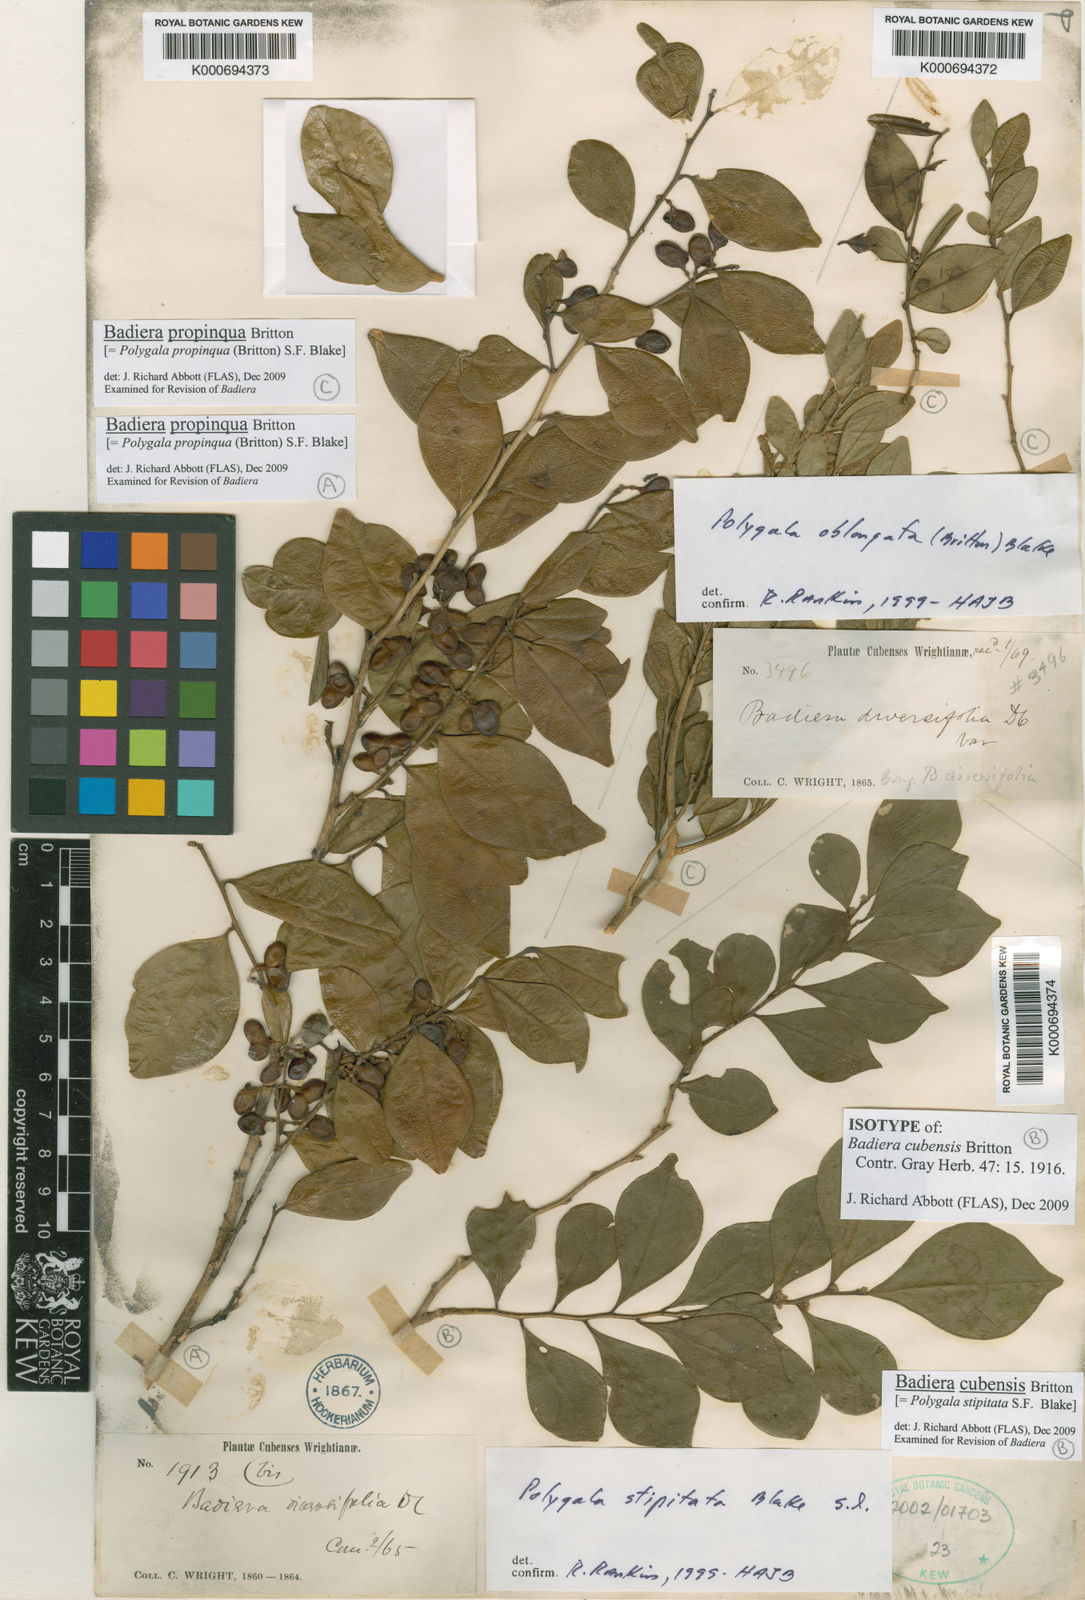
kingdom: Plantae
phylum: Tracheophyta
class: Magnoliopsida
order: Fabales
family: Polygalaceae
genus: Badiera
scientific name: Badiera cubensis
